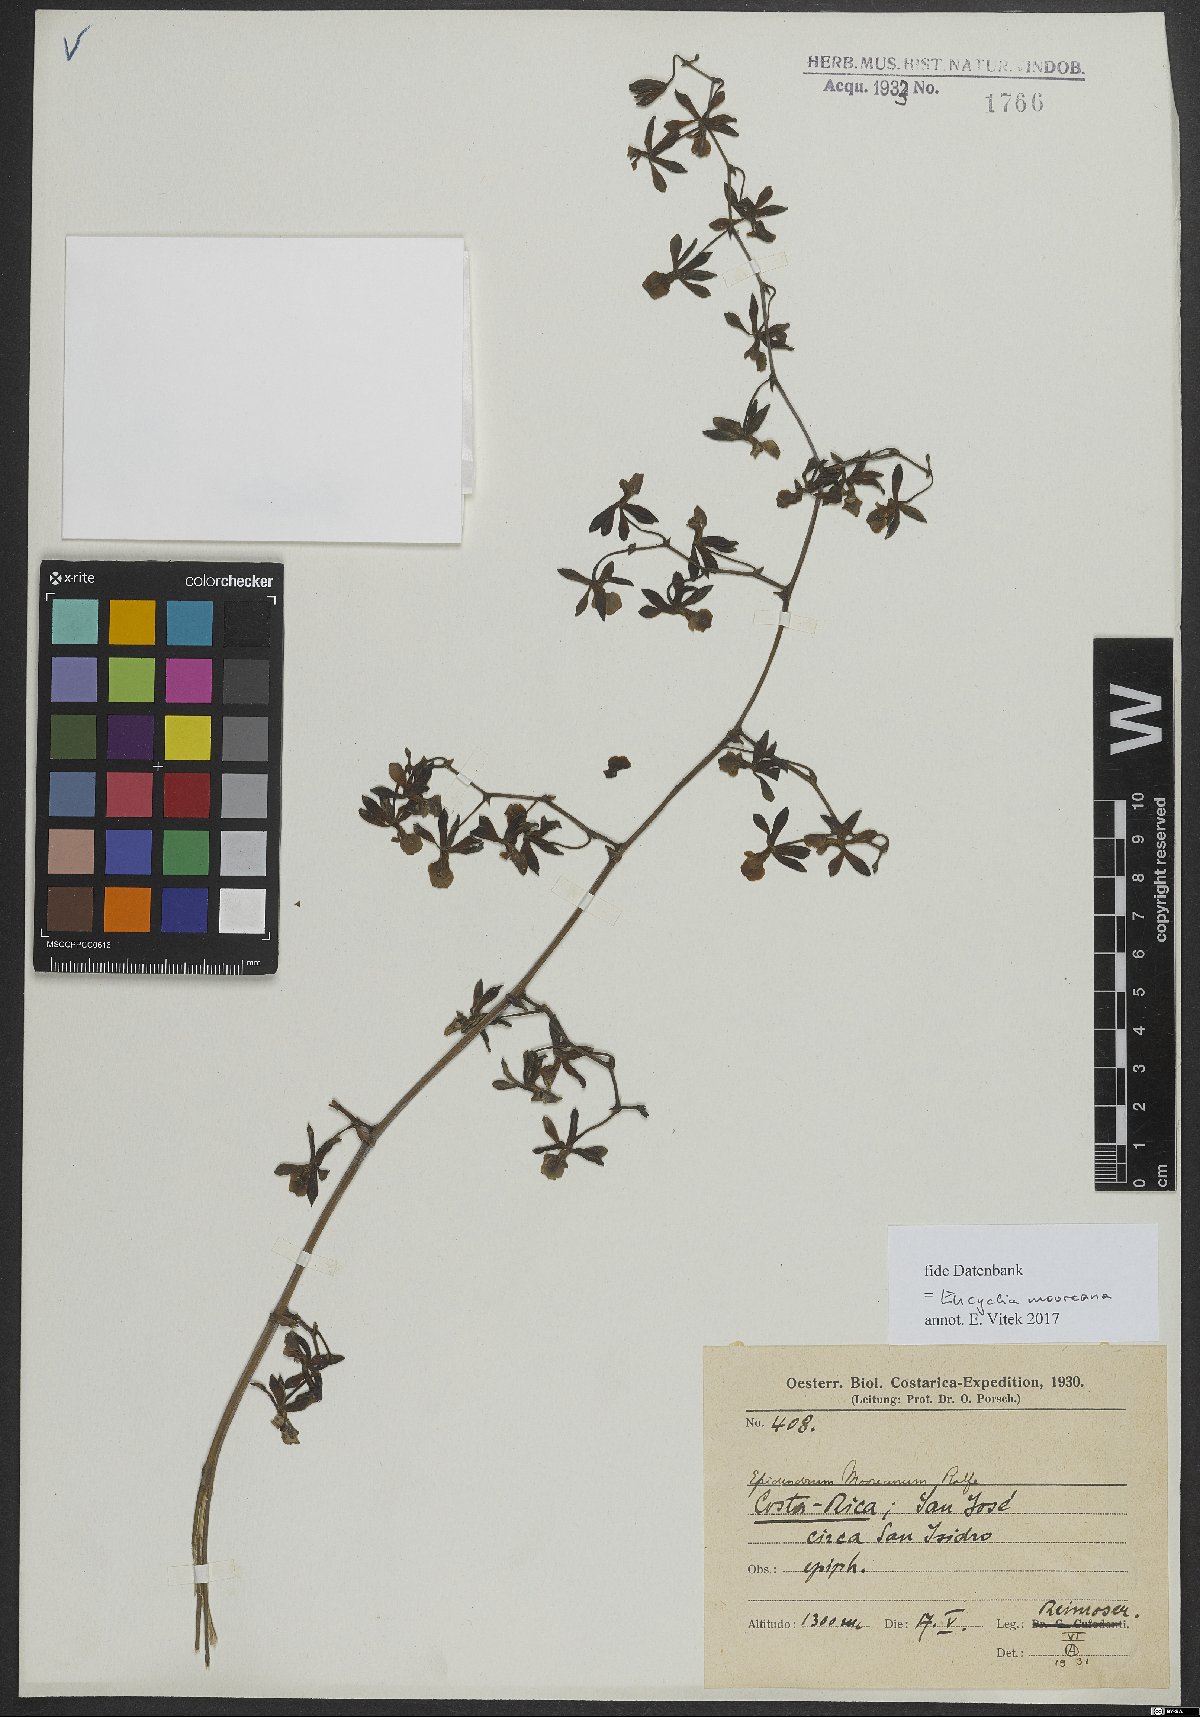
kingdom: Plantae
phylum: Tracheophyta
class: Liliopsida
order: Asparagales
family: Orchidaceae
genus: Encyclia
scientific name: Encyclia mooreana
